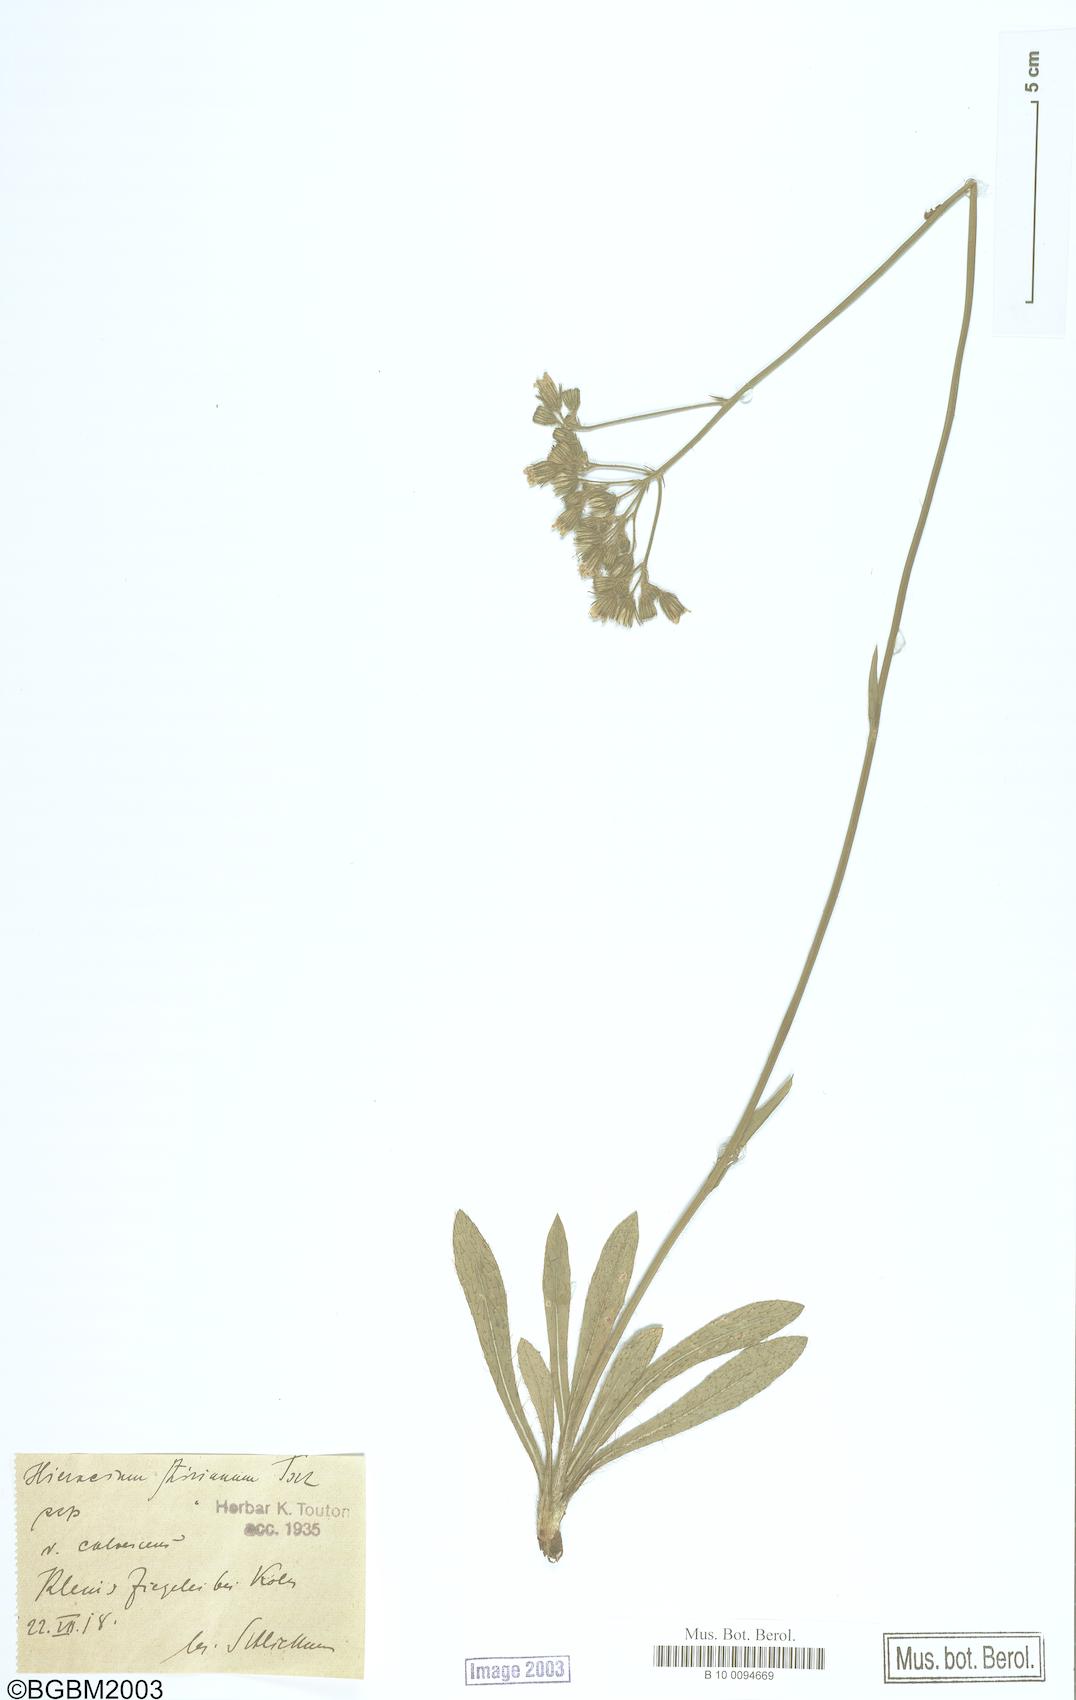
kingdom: Plantae
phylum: Tracheophyta
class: Magnoliopsida
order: Asterales
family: Asteraceae
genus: Pilosella
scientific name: Pilosella ziziana
